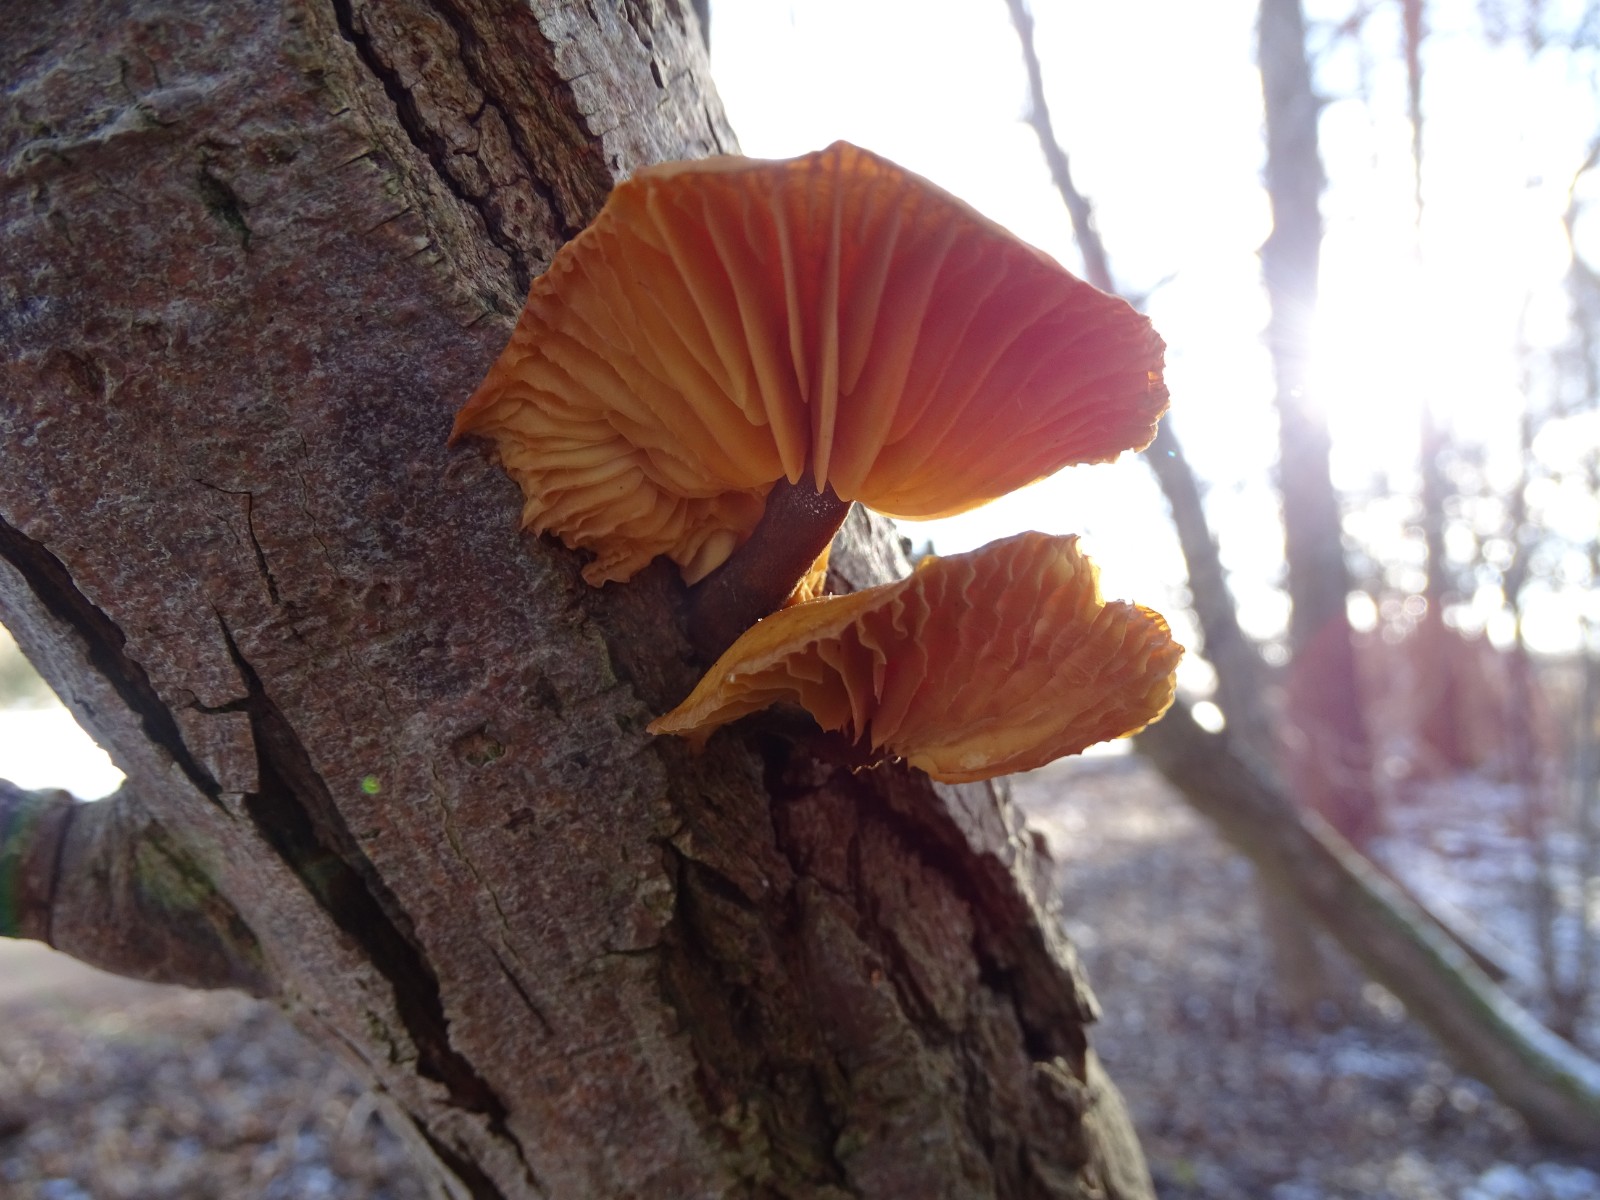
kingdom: Fungi
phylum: Basidiomycota
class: Agaricomycetes
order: Agaricales
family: Physalacriaceae
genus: Flammulina
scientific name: Flammulina
